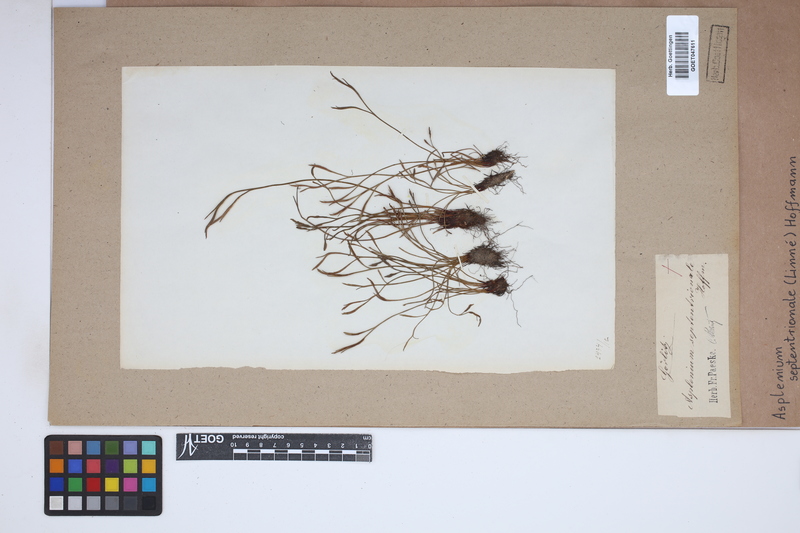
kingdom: Plantae
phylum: Tracheophyta
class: Polypodiopsida
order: Polypodiales
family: Aspleniaceae
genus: Asplenium
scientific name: Asplenium septentrionale
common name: Forked spleenwort
